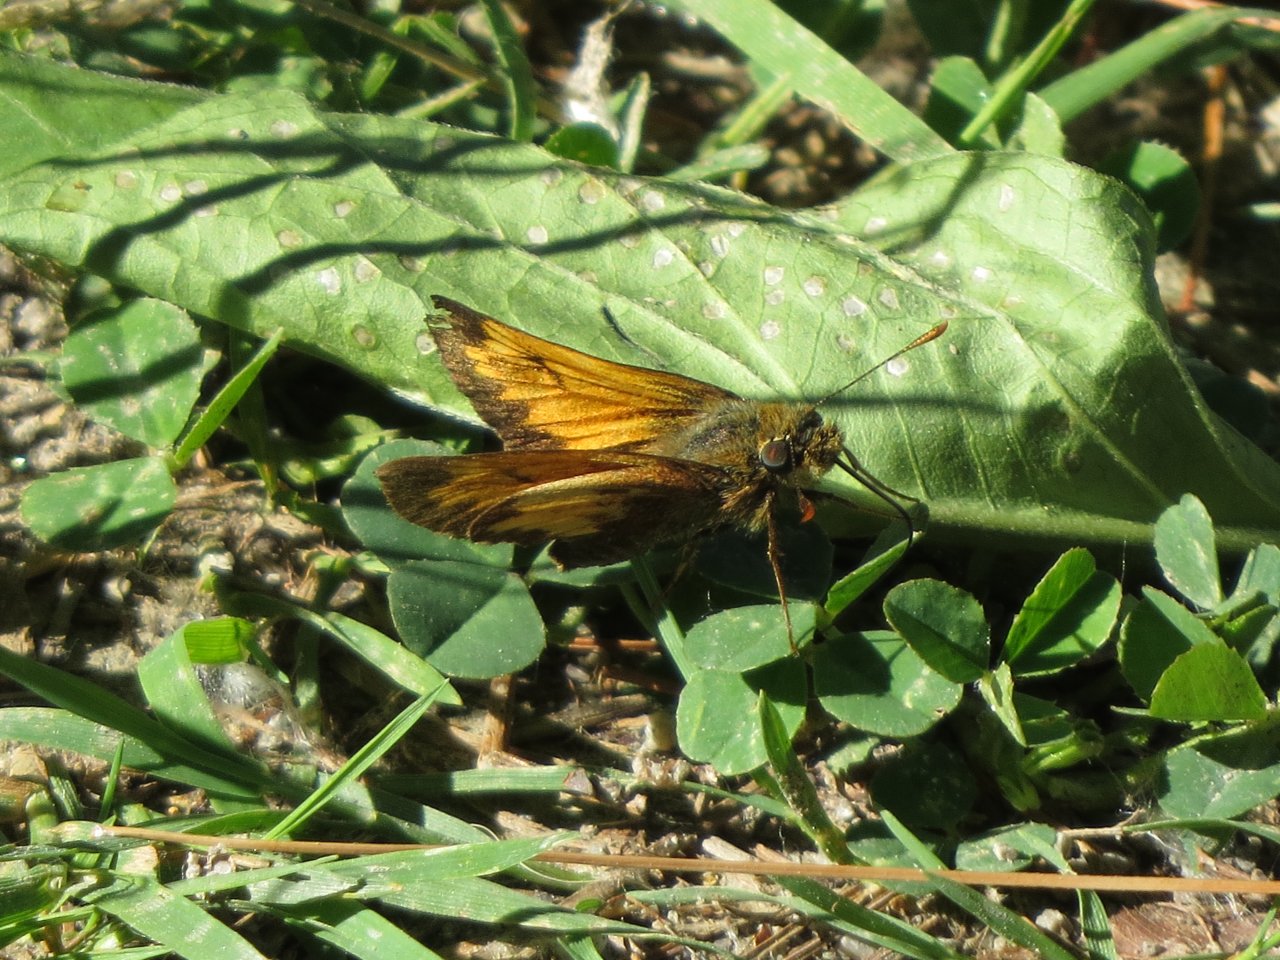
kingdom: Animalia
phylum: Arthropoda
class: Insecta
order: Lepidoptera
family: Hesperiidae
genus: Lon
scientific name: Lon hobomok
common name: Hobomok Skipper
